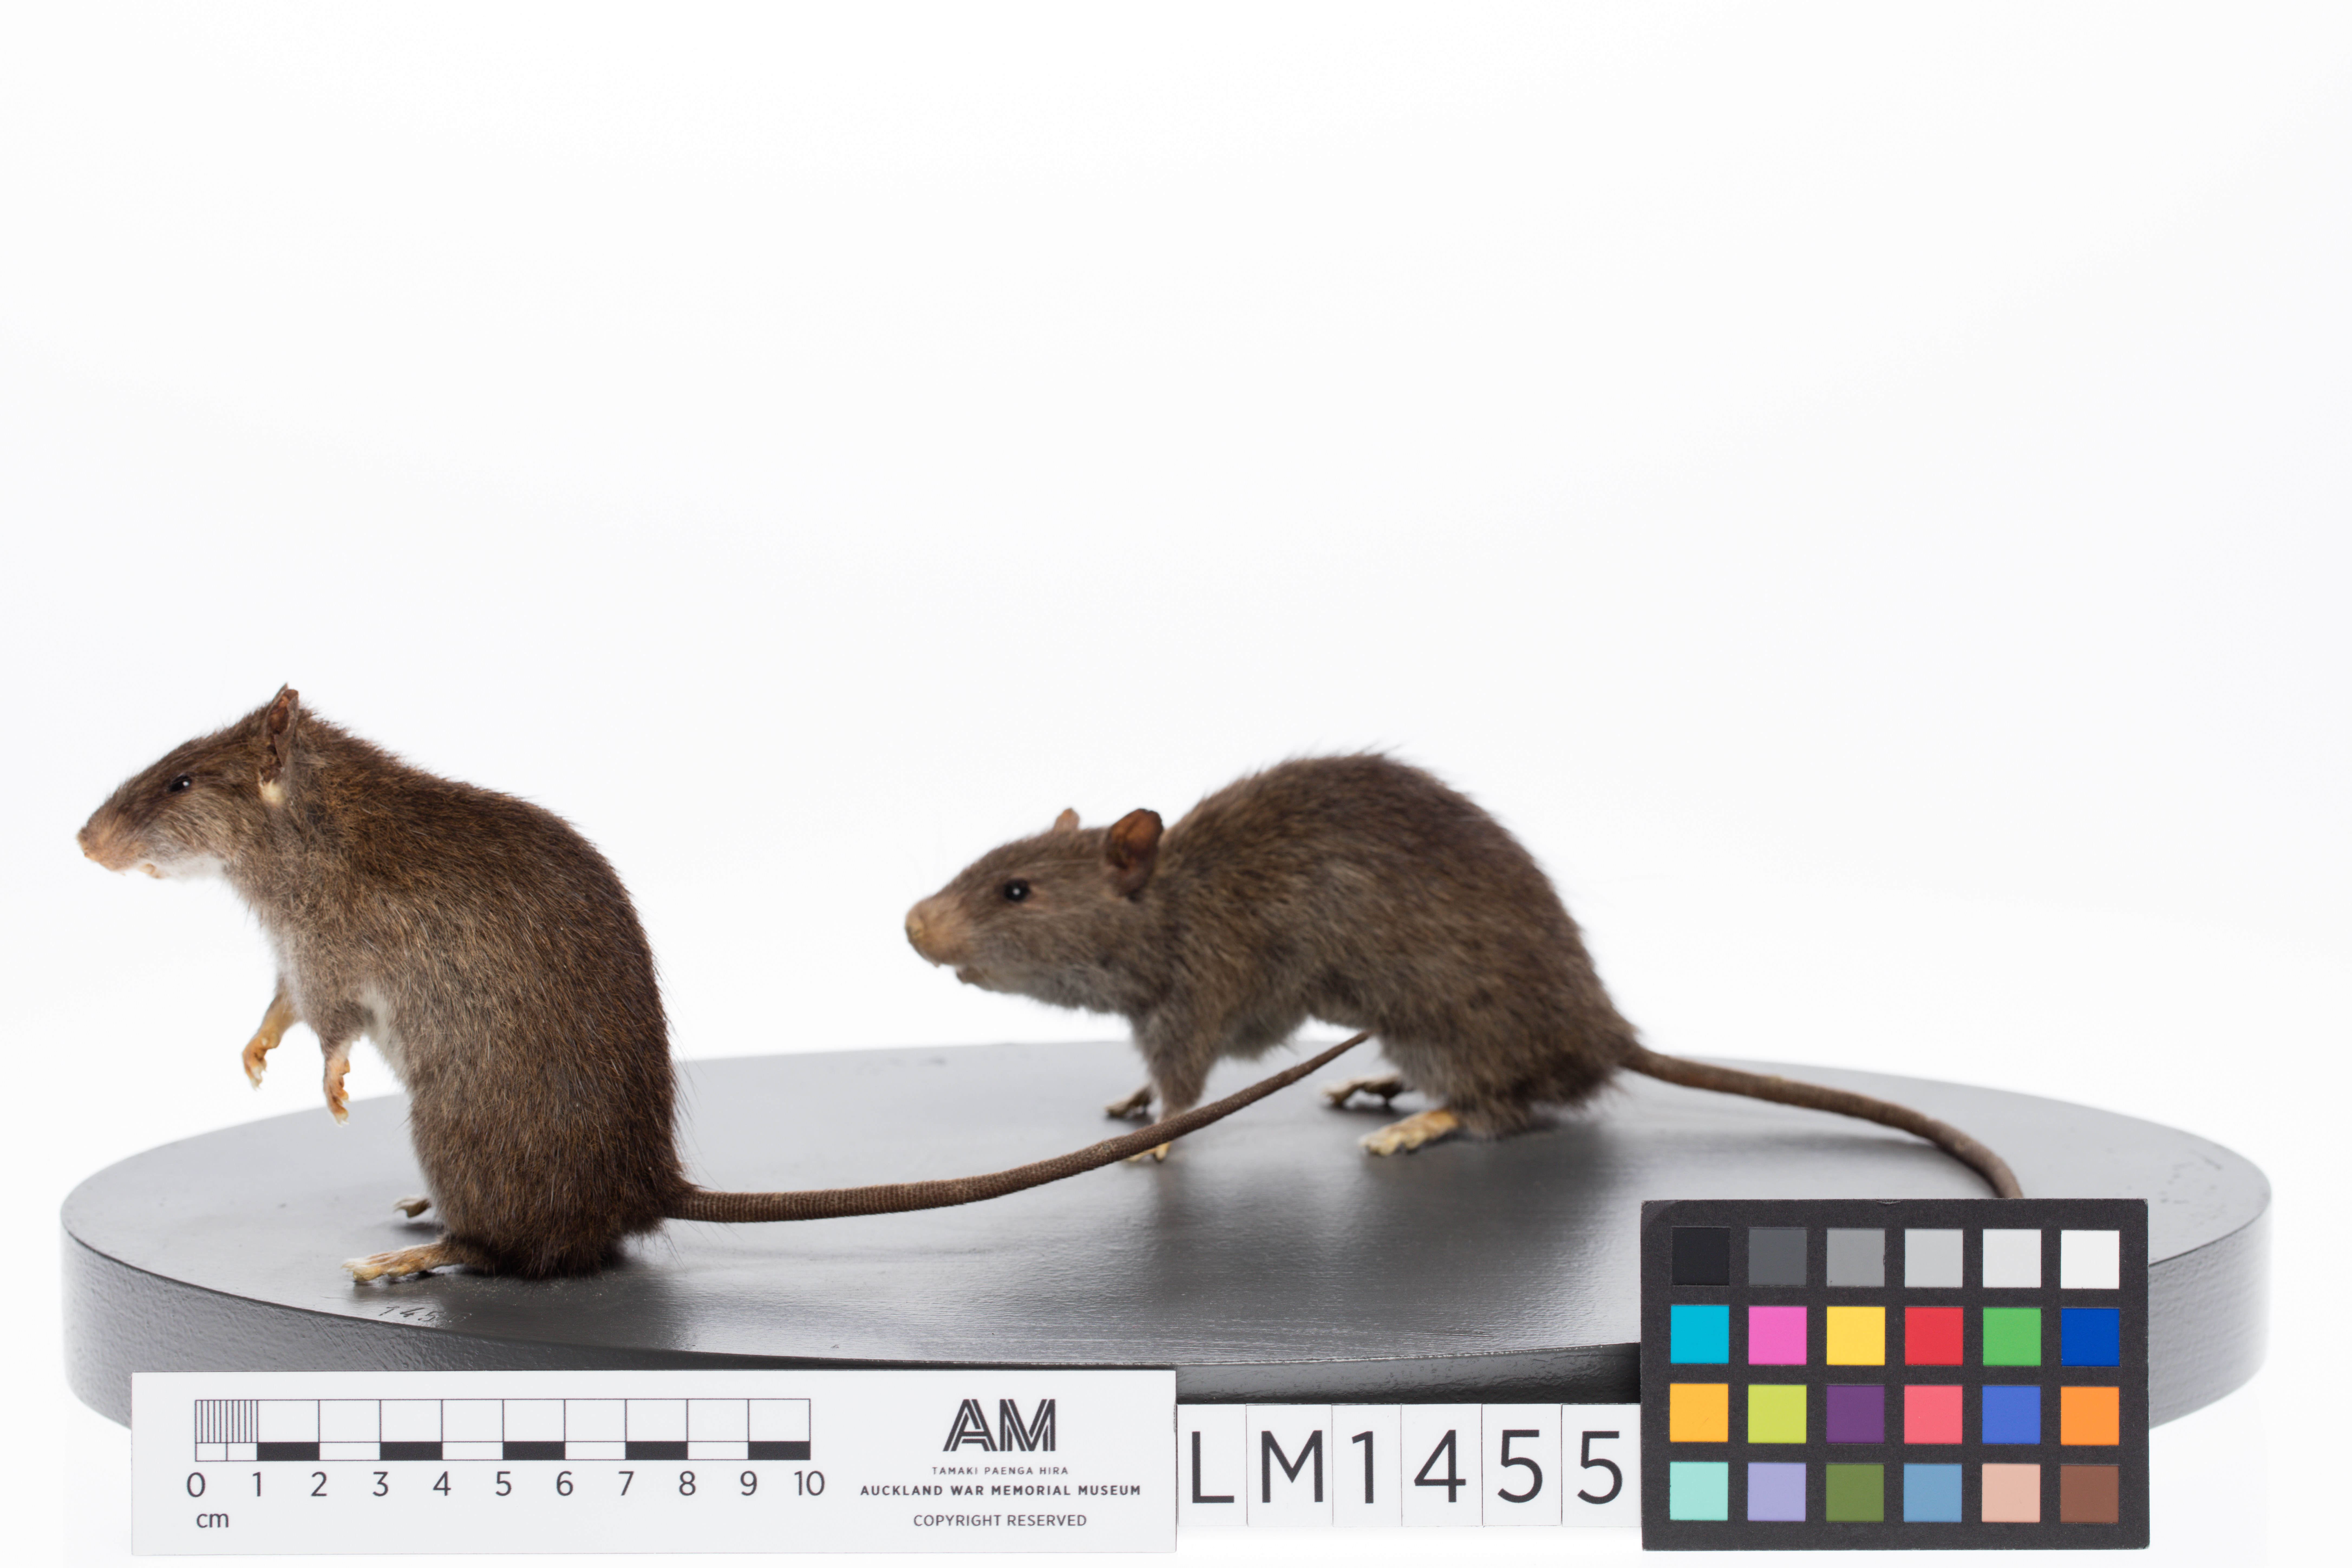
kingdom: Animalia
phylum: Chordata
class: Mammalia
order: Rodentia
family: Muridae
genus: Rattus
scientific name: Rattus exulans
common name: Polynesian rat
